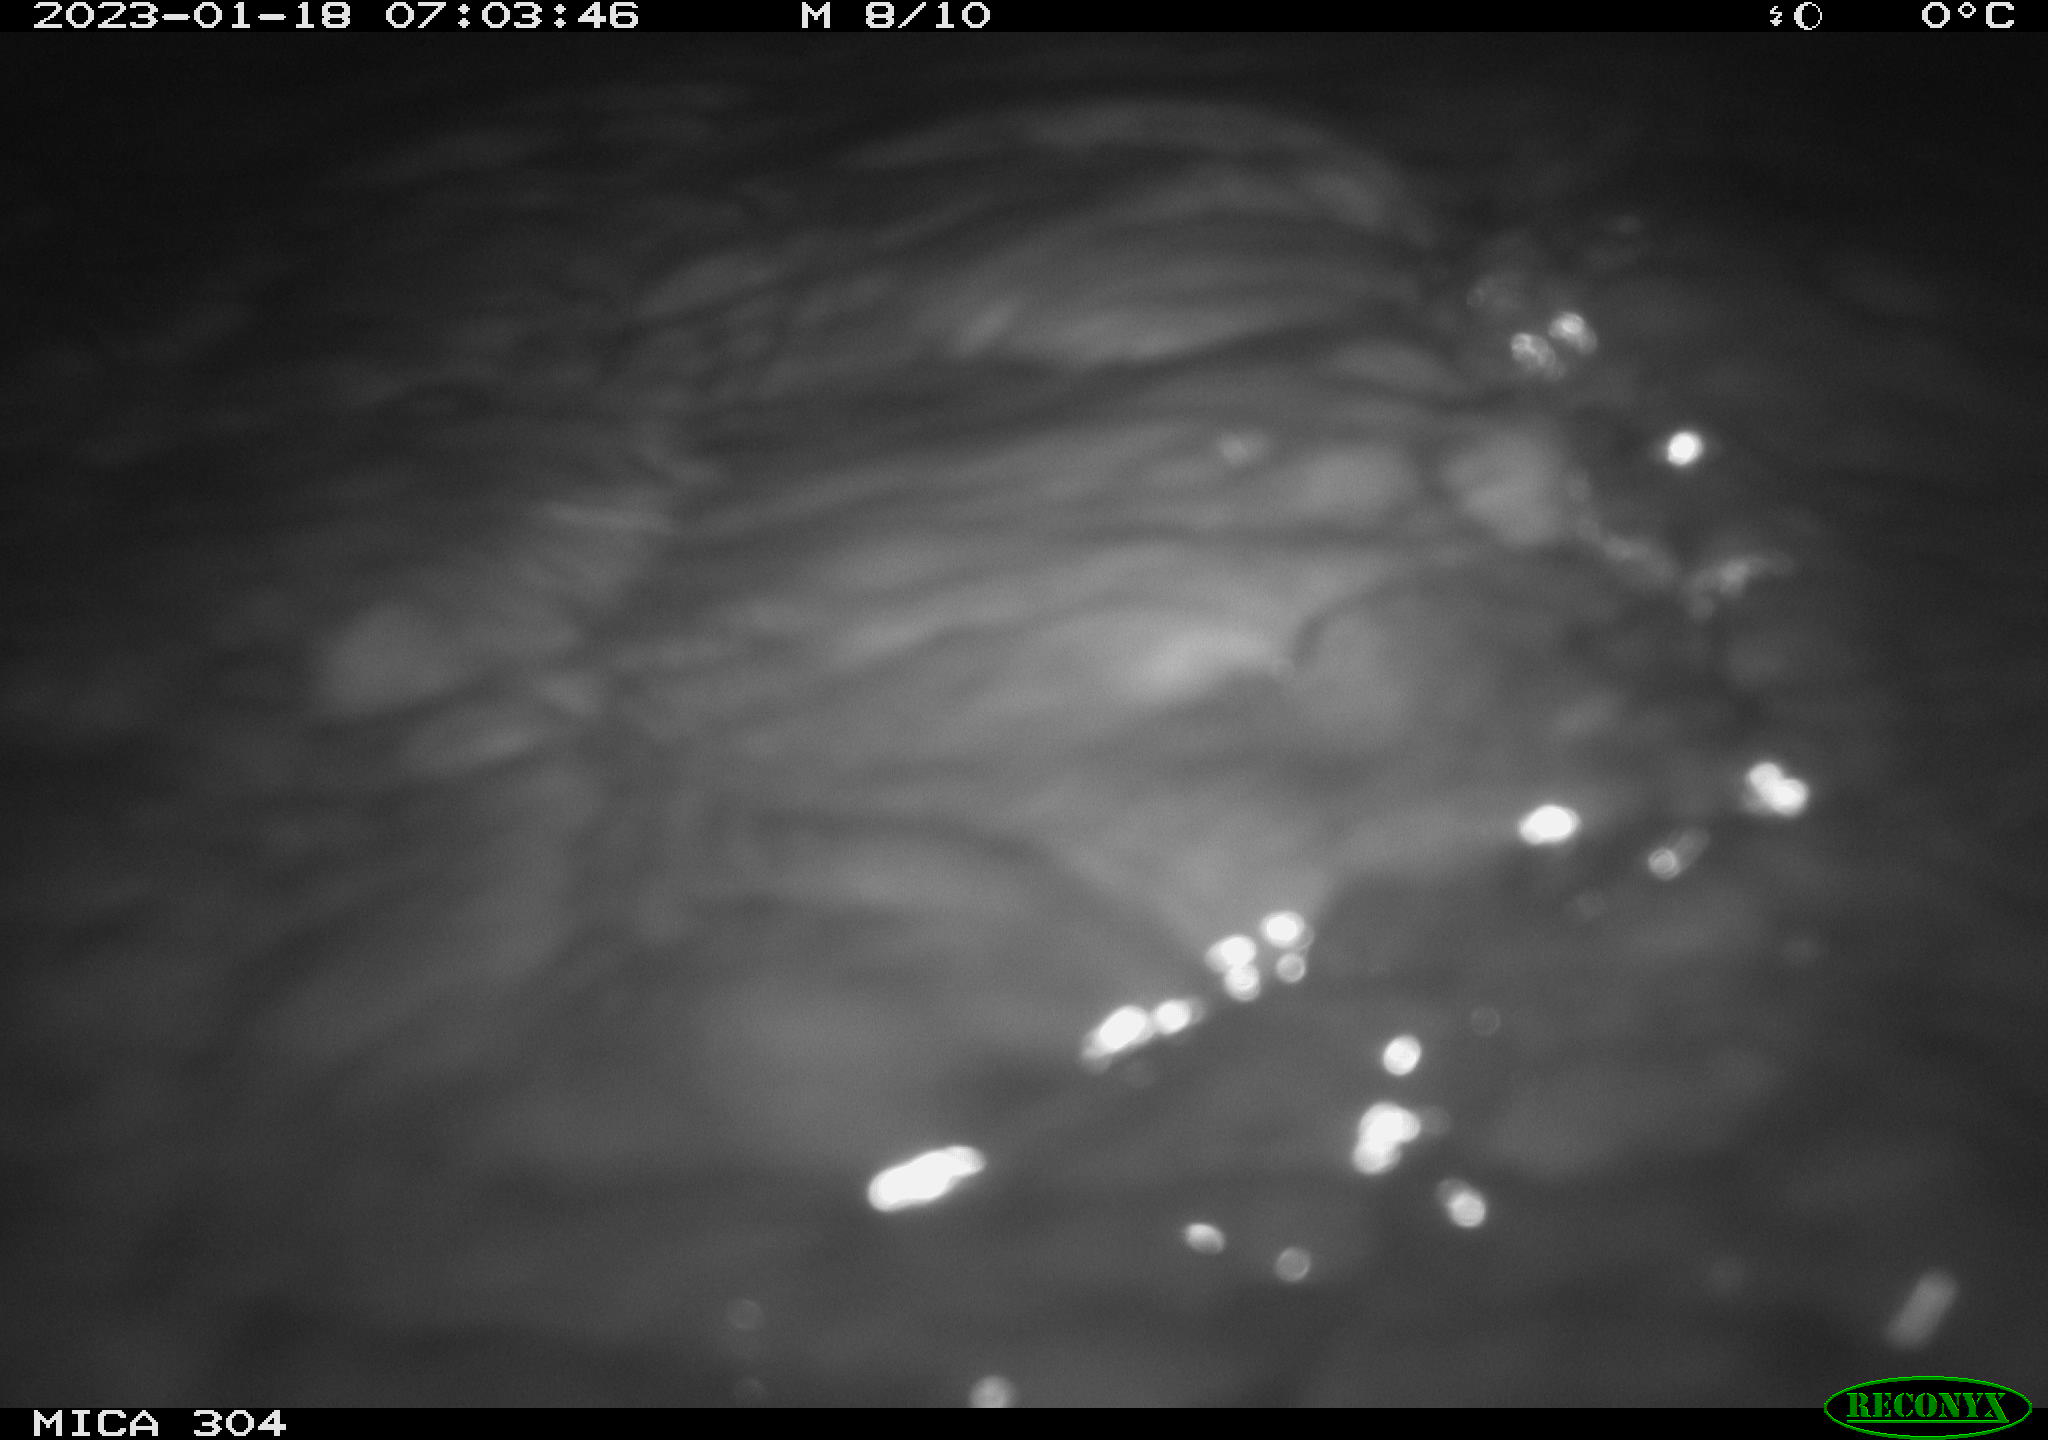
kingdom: Animalia
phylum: Chordata
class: Mammalia
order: Rodentia
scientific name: Rodentia
